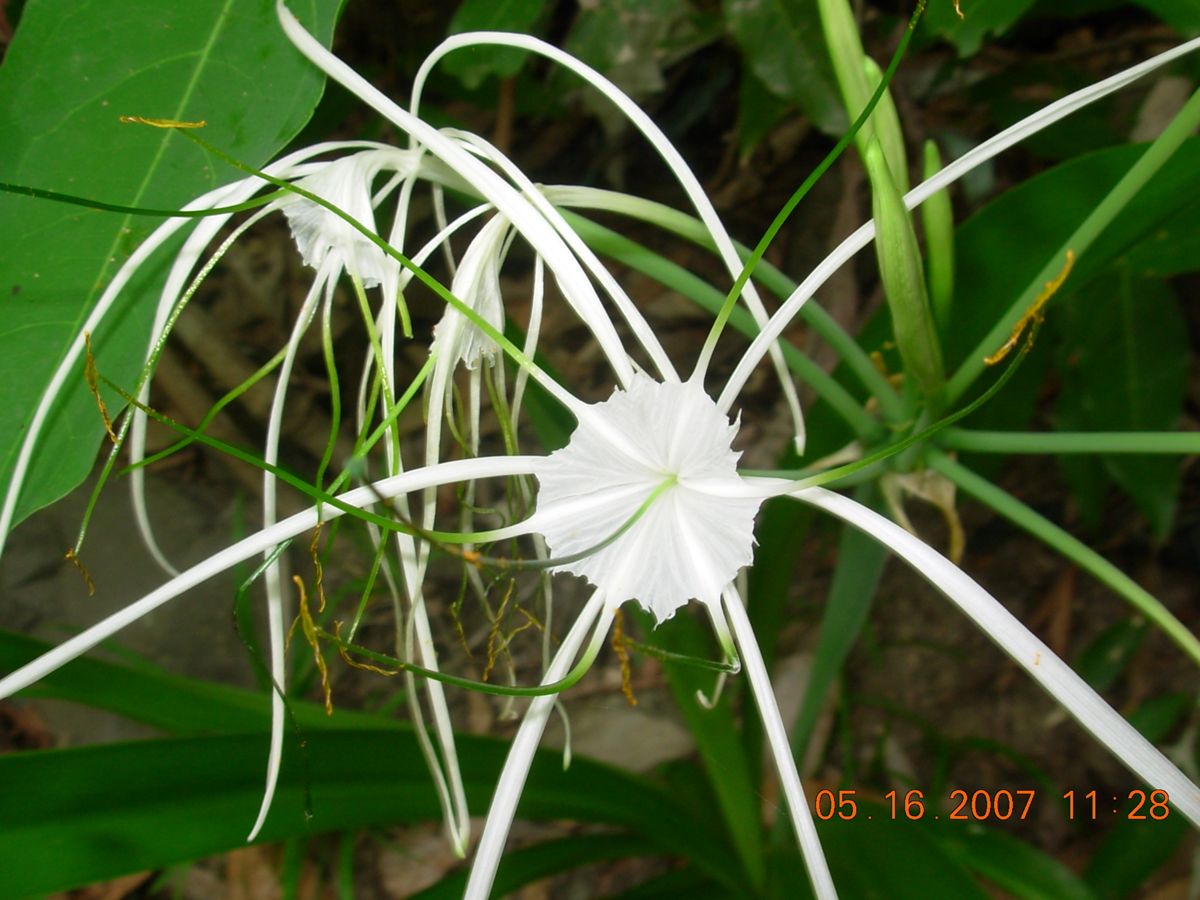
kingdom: Plantae
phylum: Tracheophyta
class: Liliopsida
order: Asparagales
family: Amaryllidaceae
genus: Hymenocallis
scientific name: Hymenocallis littoralis
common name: Beach spiderlily
